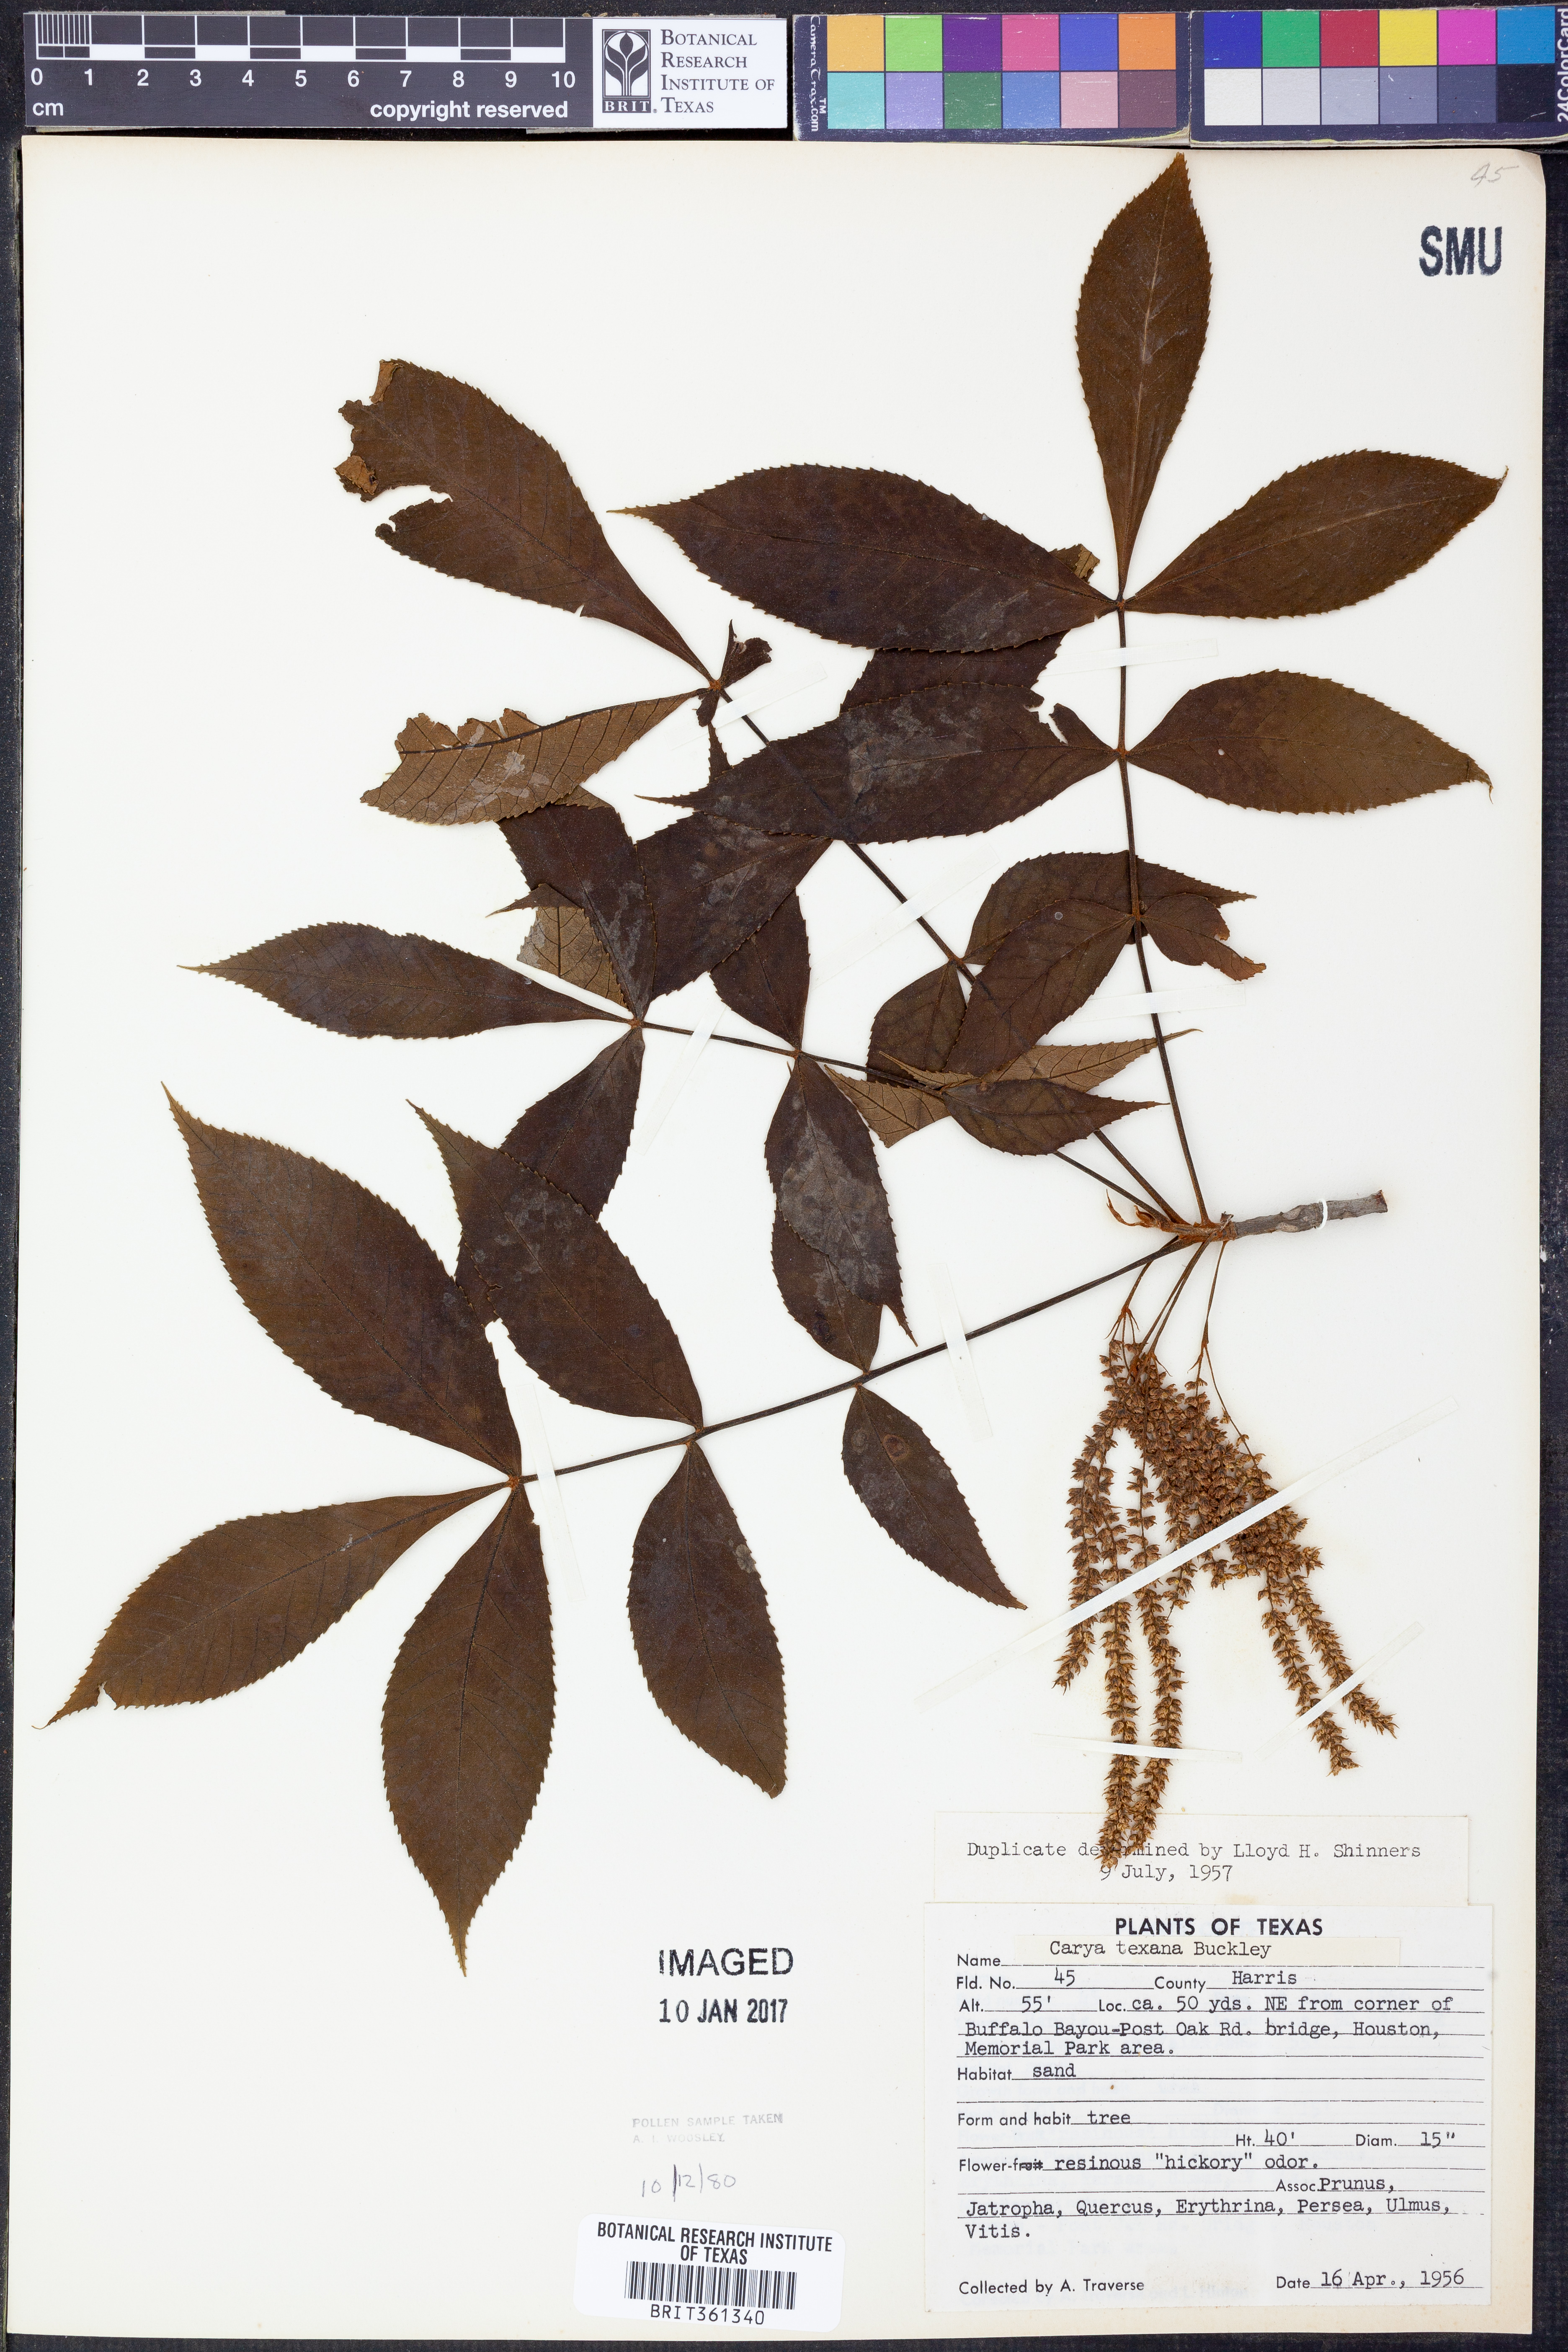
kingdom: Plantae
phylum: Tracheophyta
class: Magnoliopsida
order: Fagales
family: Juglandaceae
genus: Carya
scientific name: Carya illinoinensis
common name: Pecan
